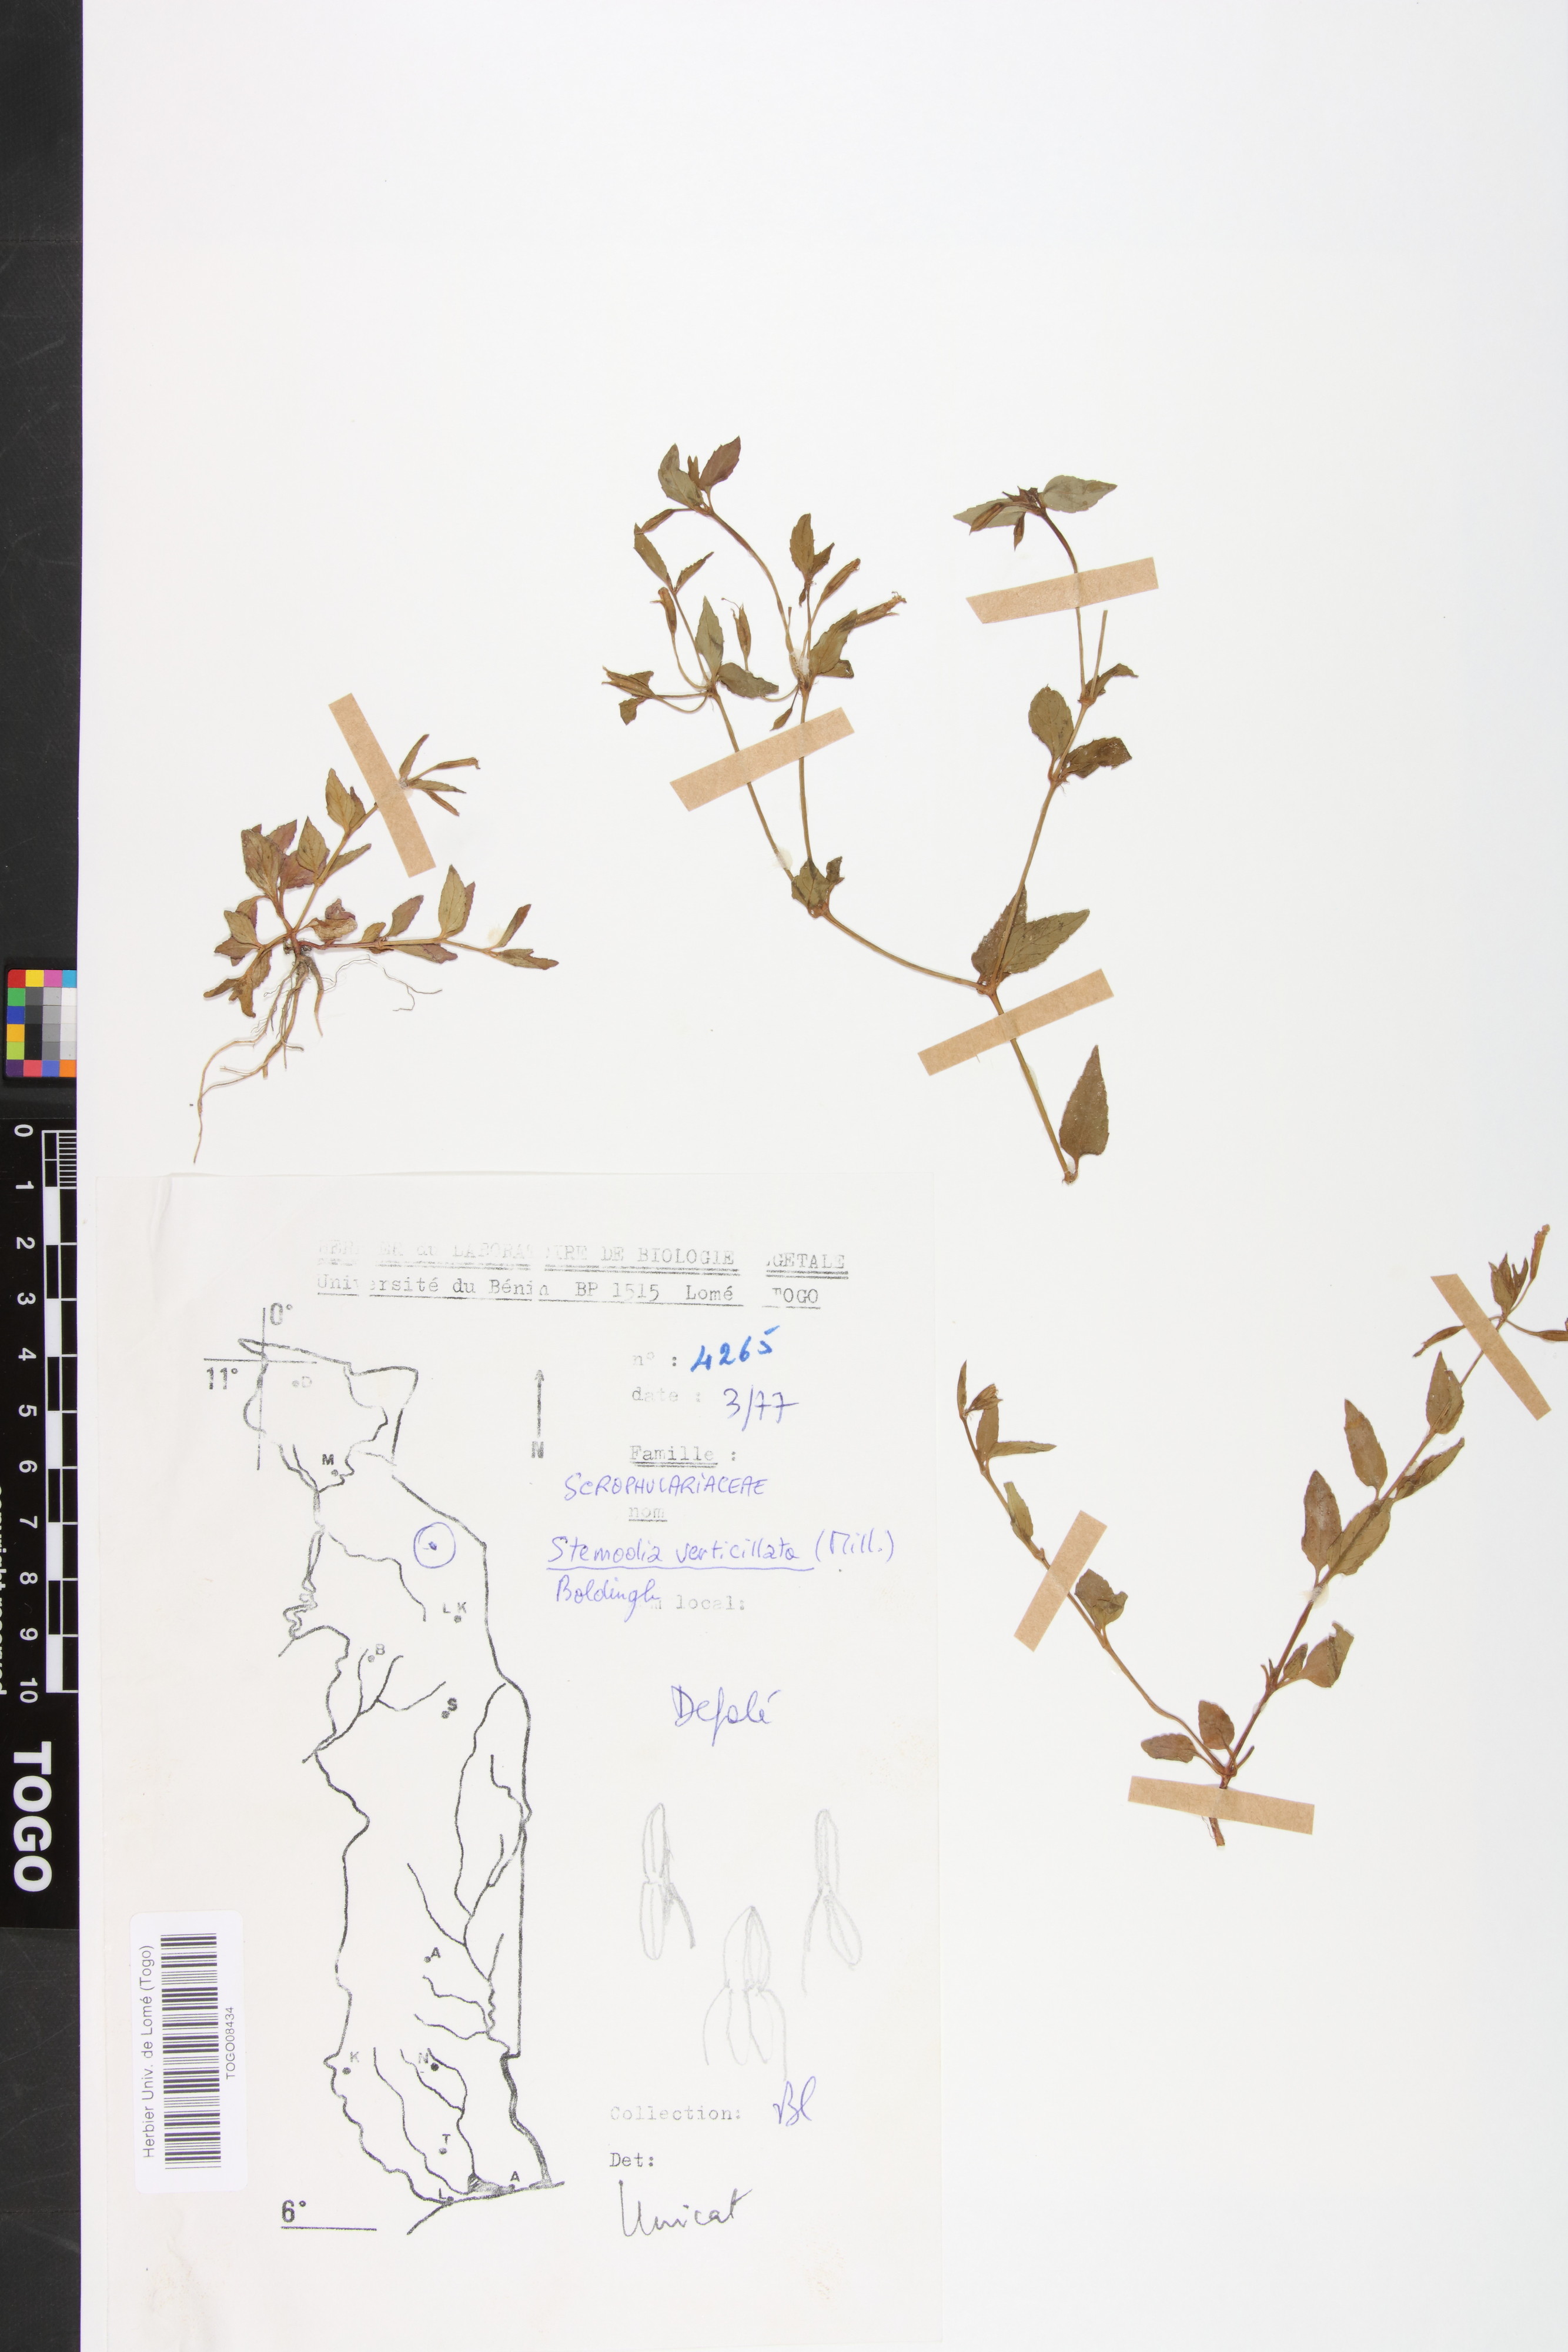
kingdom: Plantae
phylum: Tracheophyta
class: Magnoliopsida
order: Lamiales
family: Plantaginaceae
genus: Stemodia
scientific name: Stemodia verticillata
